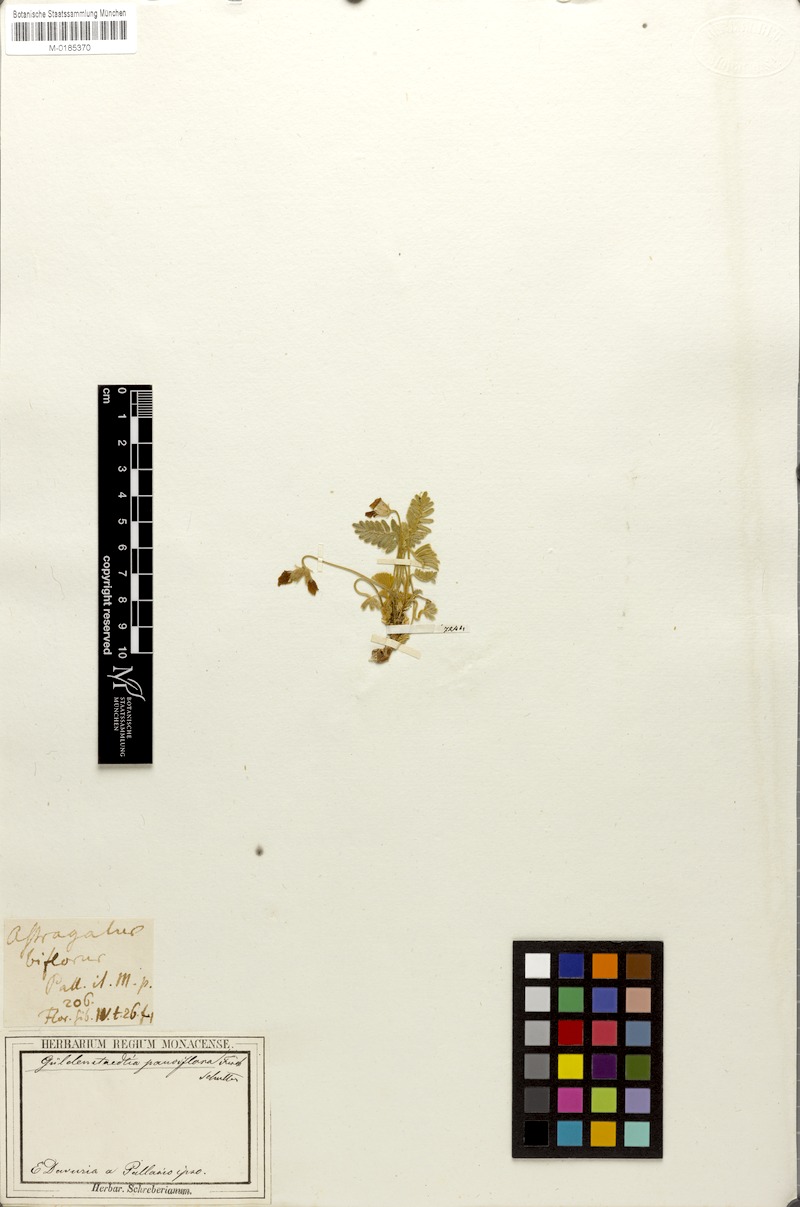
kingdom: Plantae
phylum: Tracheophyta
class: Magnoliopsida
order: Fabales
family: Fabaceae
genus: Gueldenstaedtia
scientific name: Gueldenstaedtia verna
